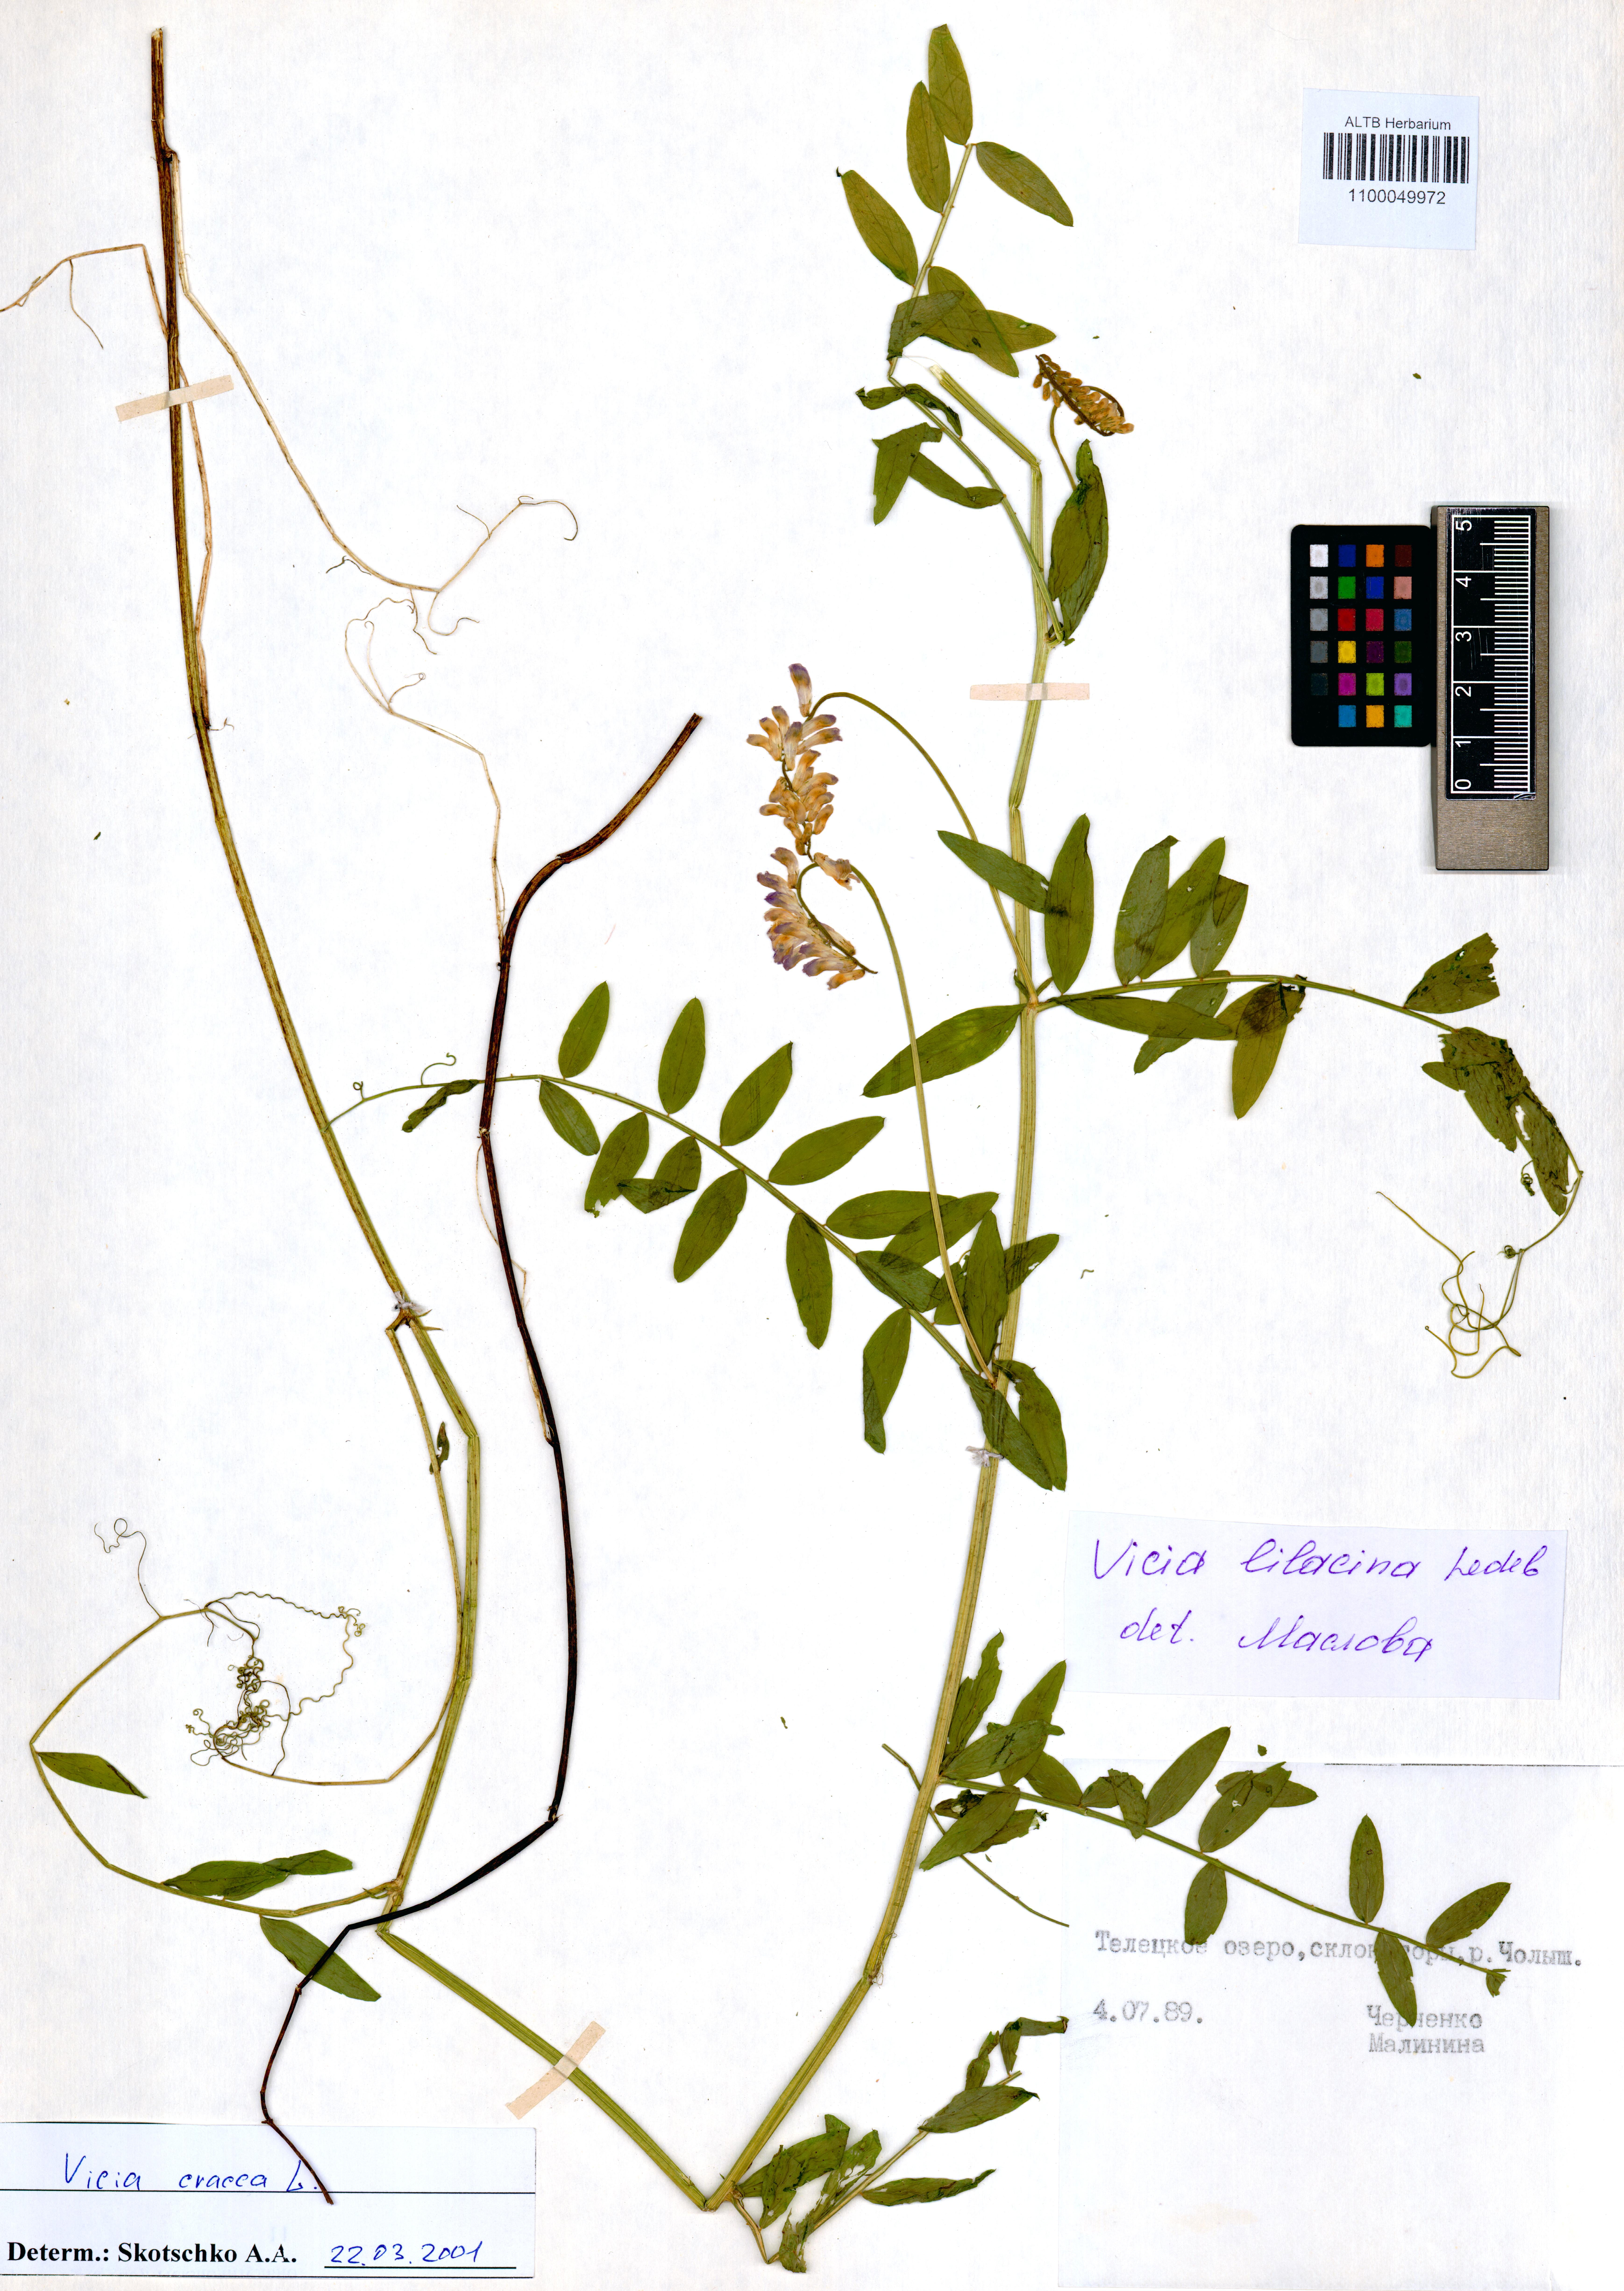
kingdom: Plantae
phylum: Tracheophyta
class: Magnoliopsida
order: Fabales
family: Fabaceae
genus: Vicia
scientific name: Vicia cracca
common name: Bird vetch
